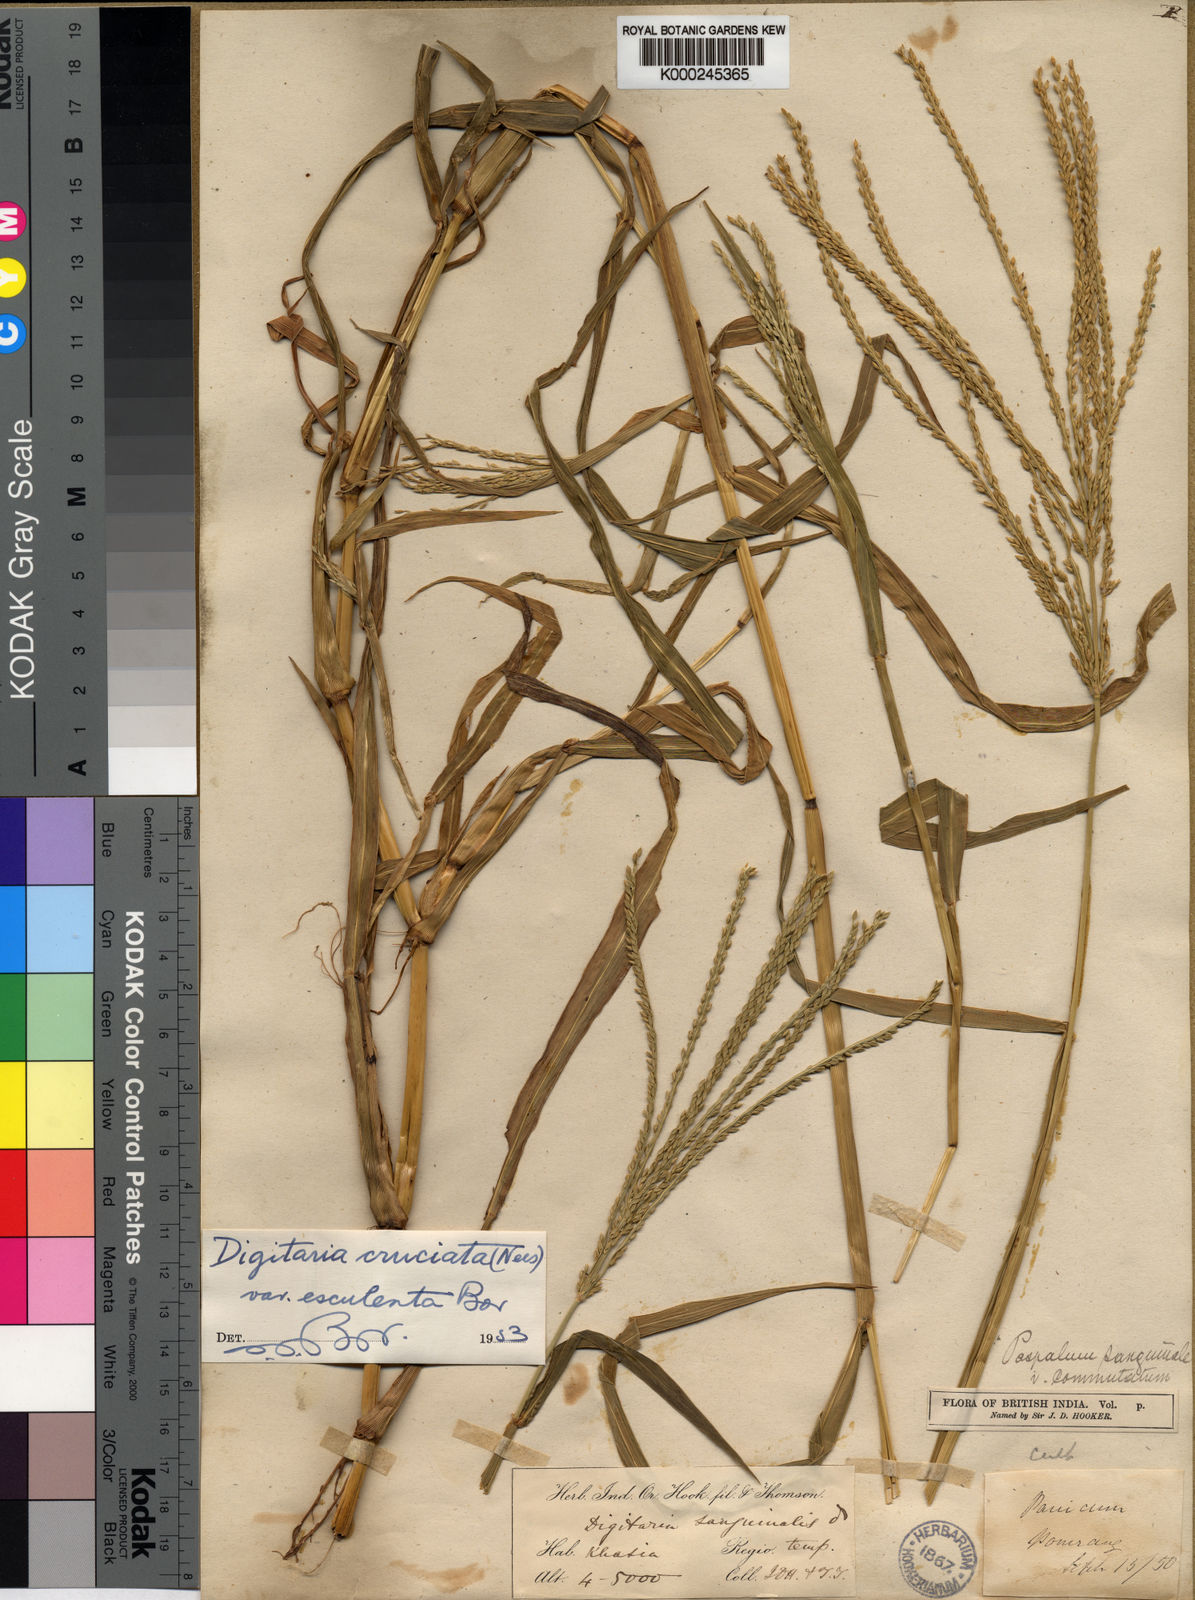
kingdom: Plantae
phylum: Tracheophyta
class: Liliopsida
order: Poales
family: Poaceae
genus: Digitaria
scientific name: Digitaria
